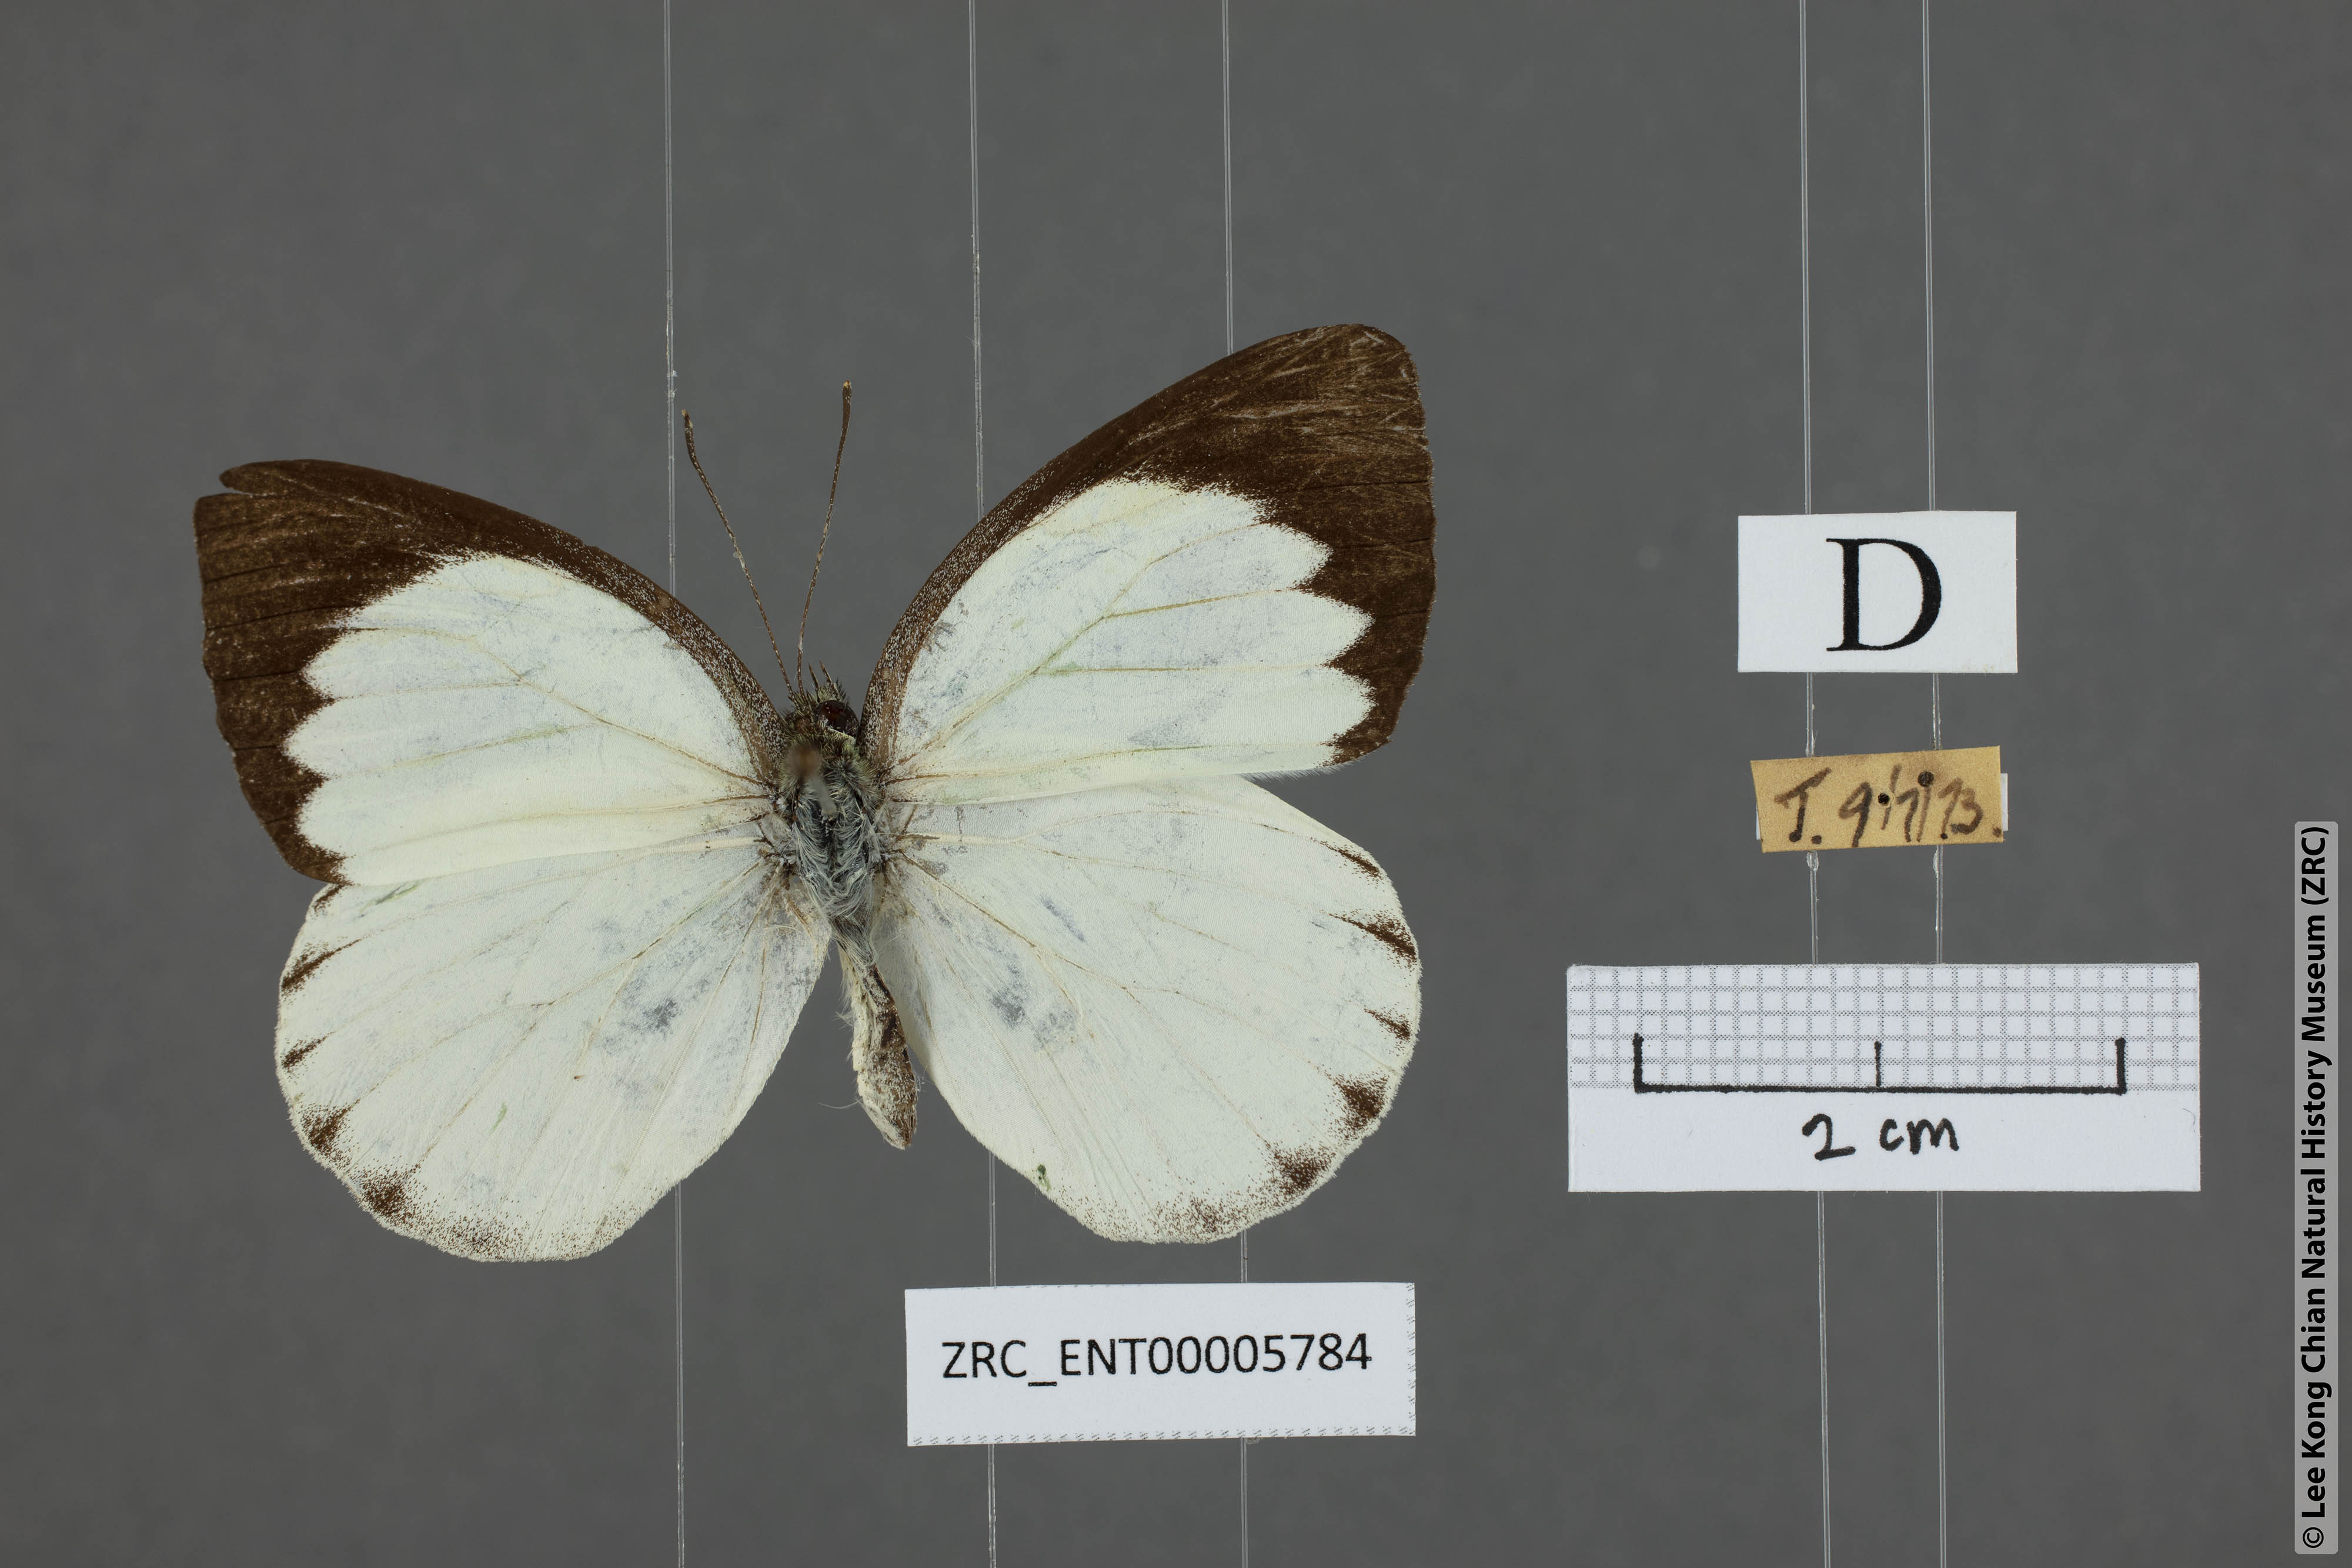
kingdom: Animalia
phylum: Arthropoda
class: Insecta
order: Lepidoptera
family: Pieridae
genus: Phrissura
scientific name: Phrissura aegis
